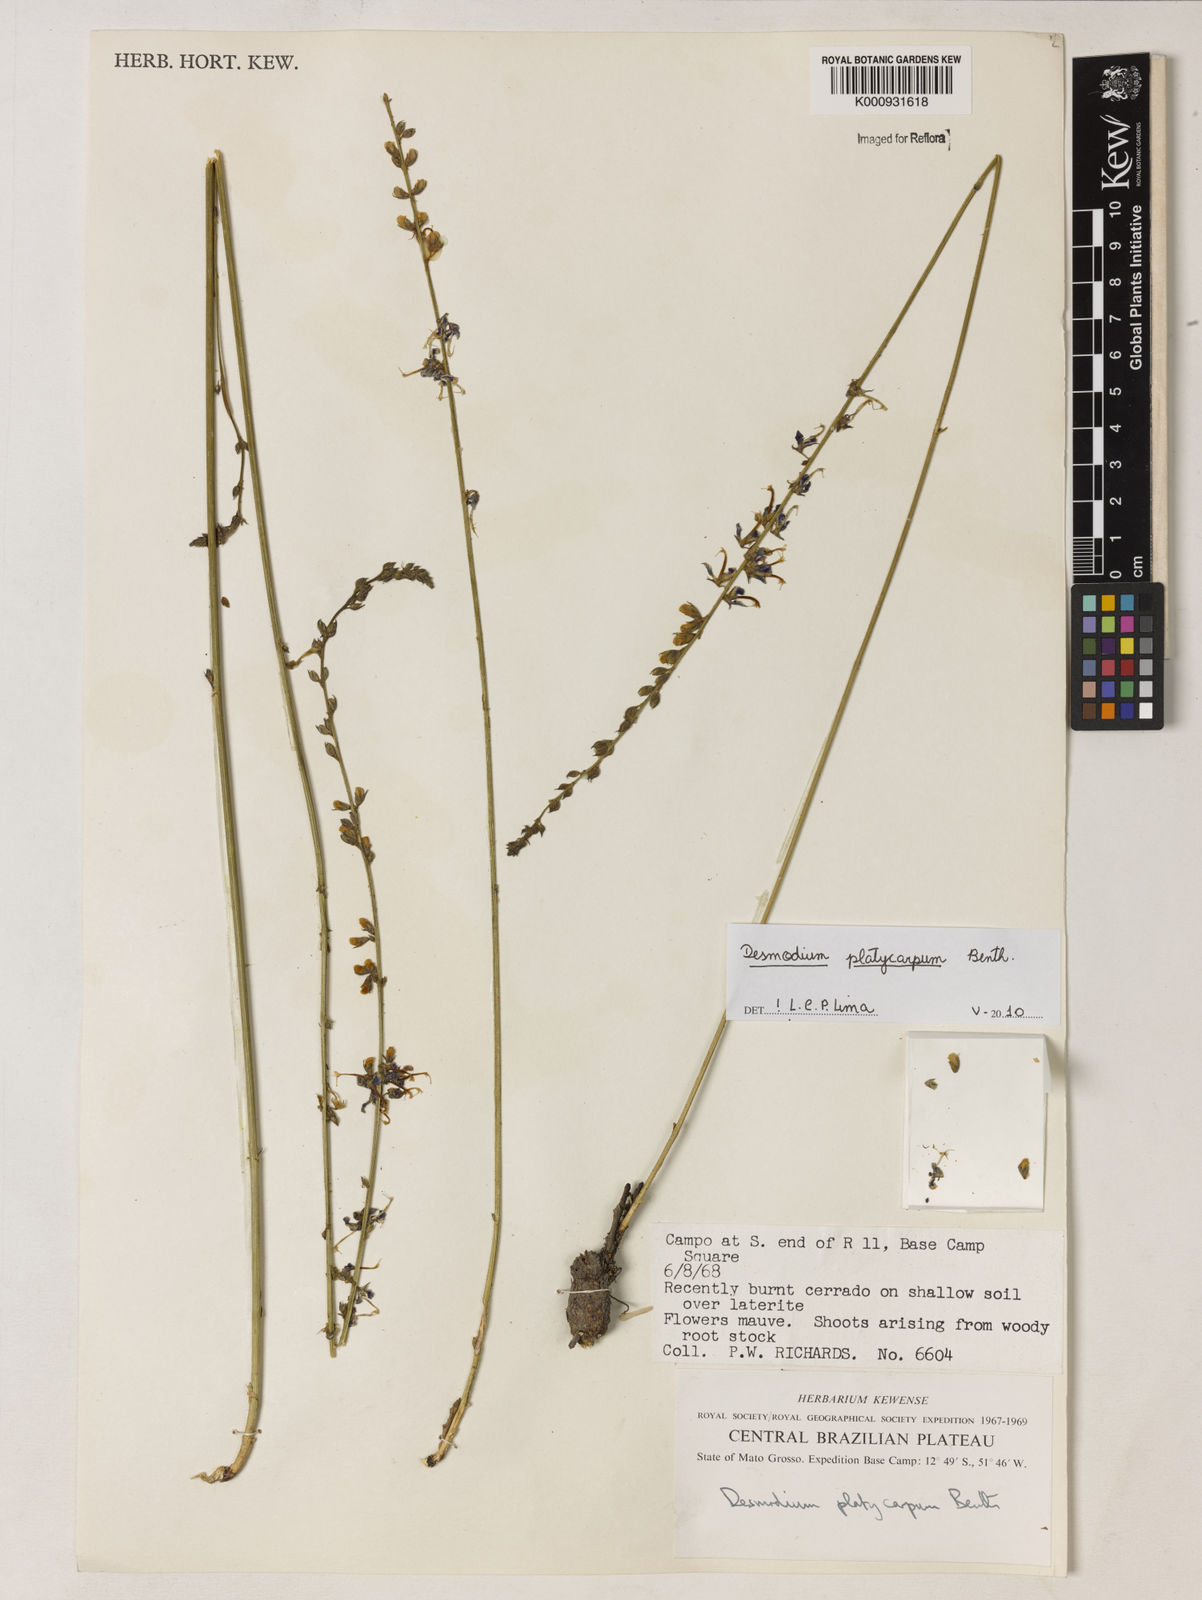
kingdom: Plantae
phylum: Tracheophyta
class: Magnoliopsida
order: Fabales
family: Fabaceae
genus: Desmodium
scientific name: Desmodium platycarpum
